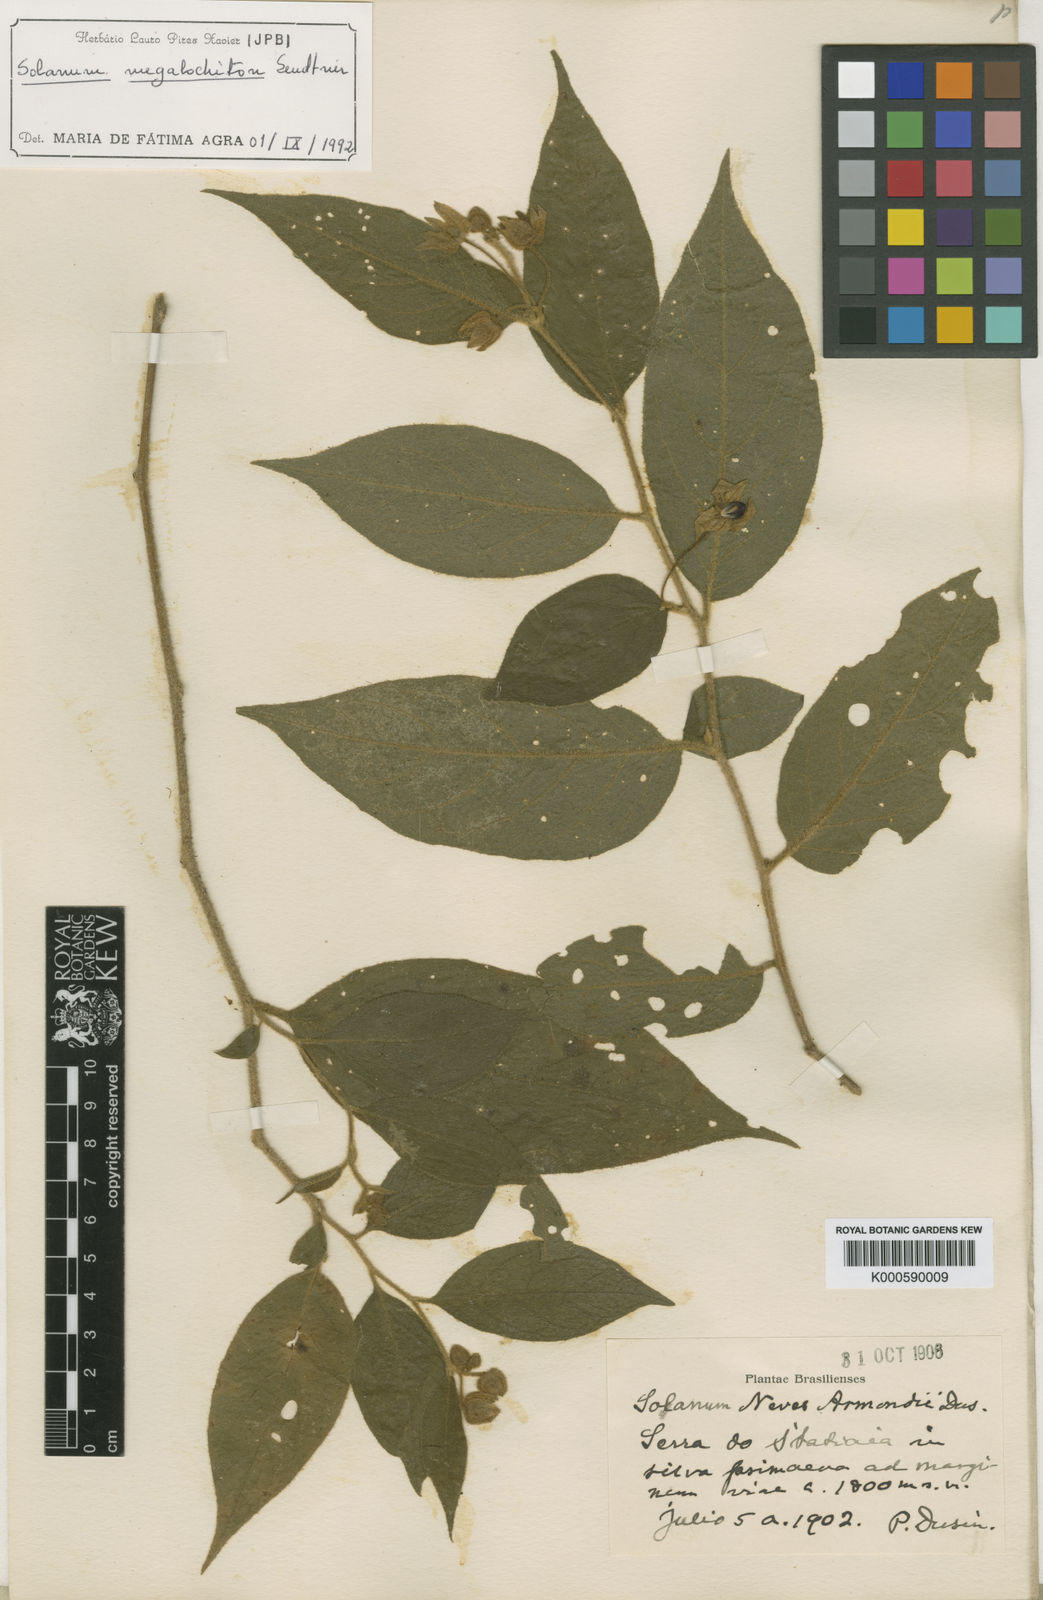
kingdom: Plantae
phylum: Tracheophyta
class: Magnoliopsida
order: Solanales
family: Solanaceae
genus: Solanum
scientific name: Solanum didymum
